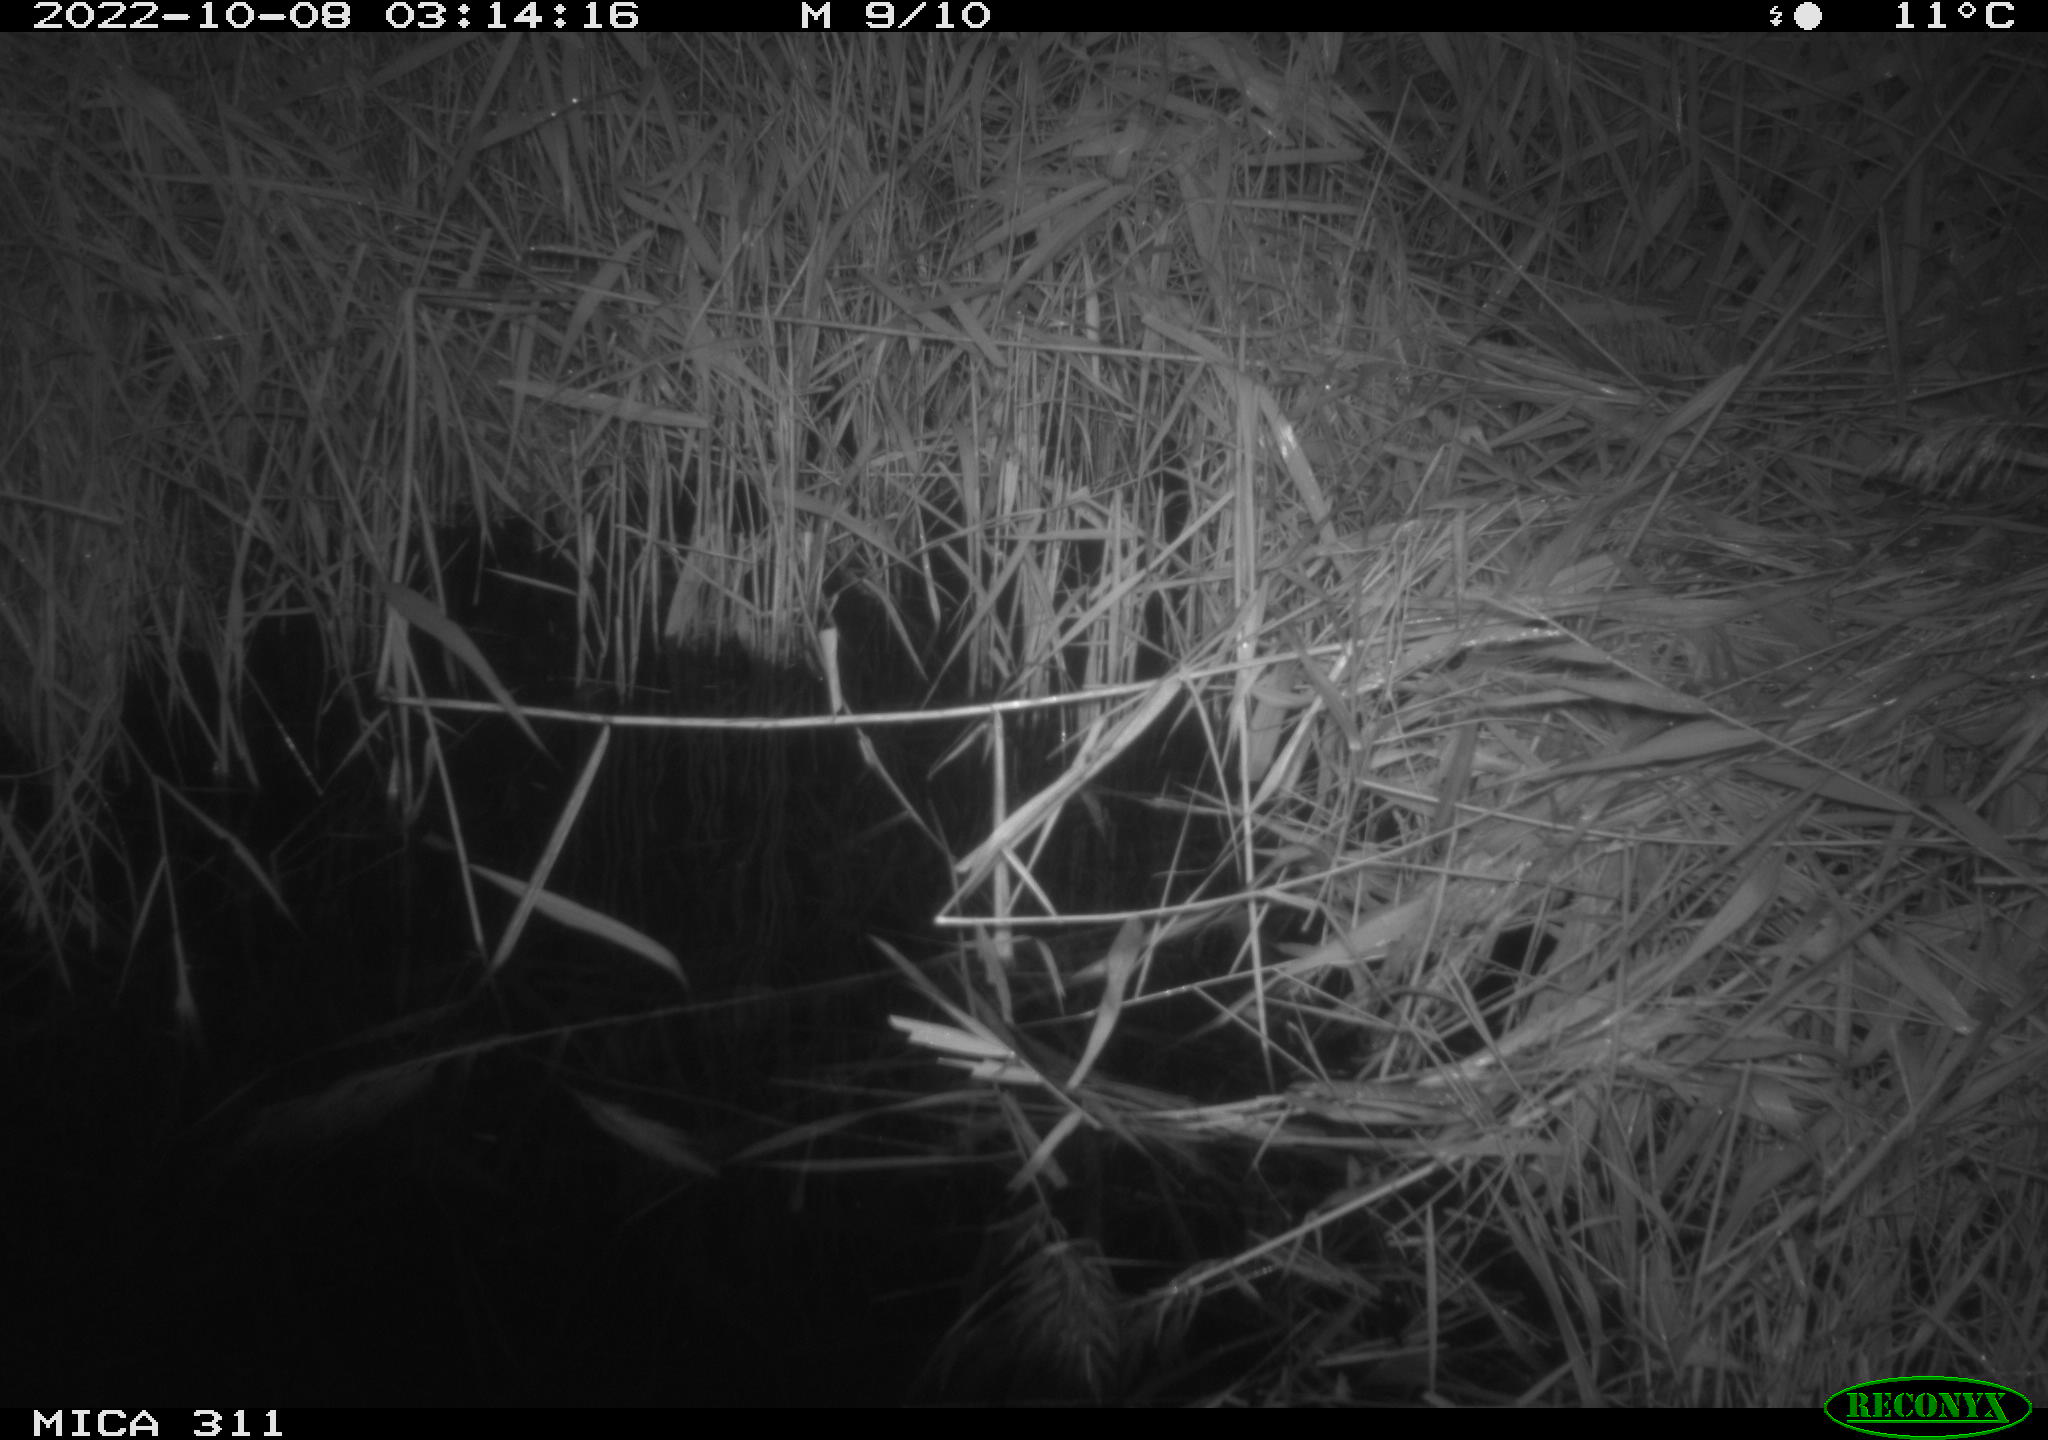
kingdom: Animalia
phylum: Chordata
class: Mammalia
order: Rodentia
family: Muridae
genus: Rattus
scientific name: Rattus norvegicus
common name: Brown rat
